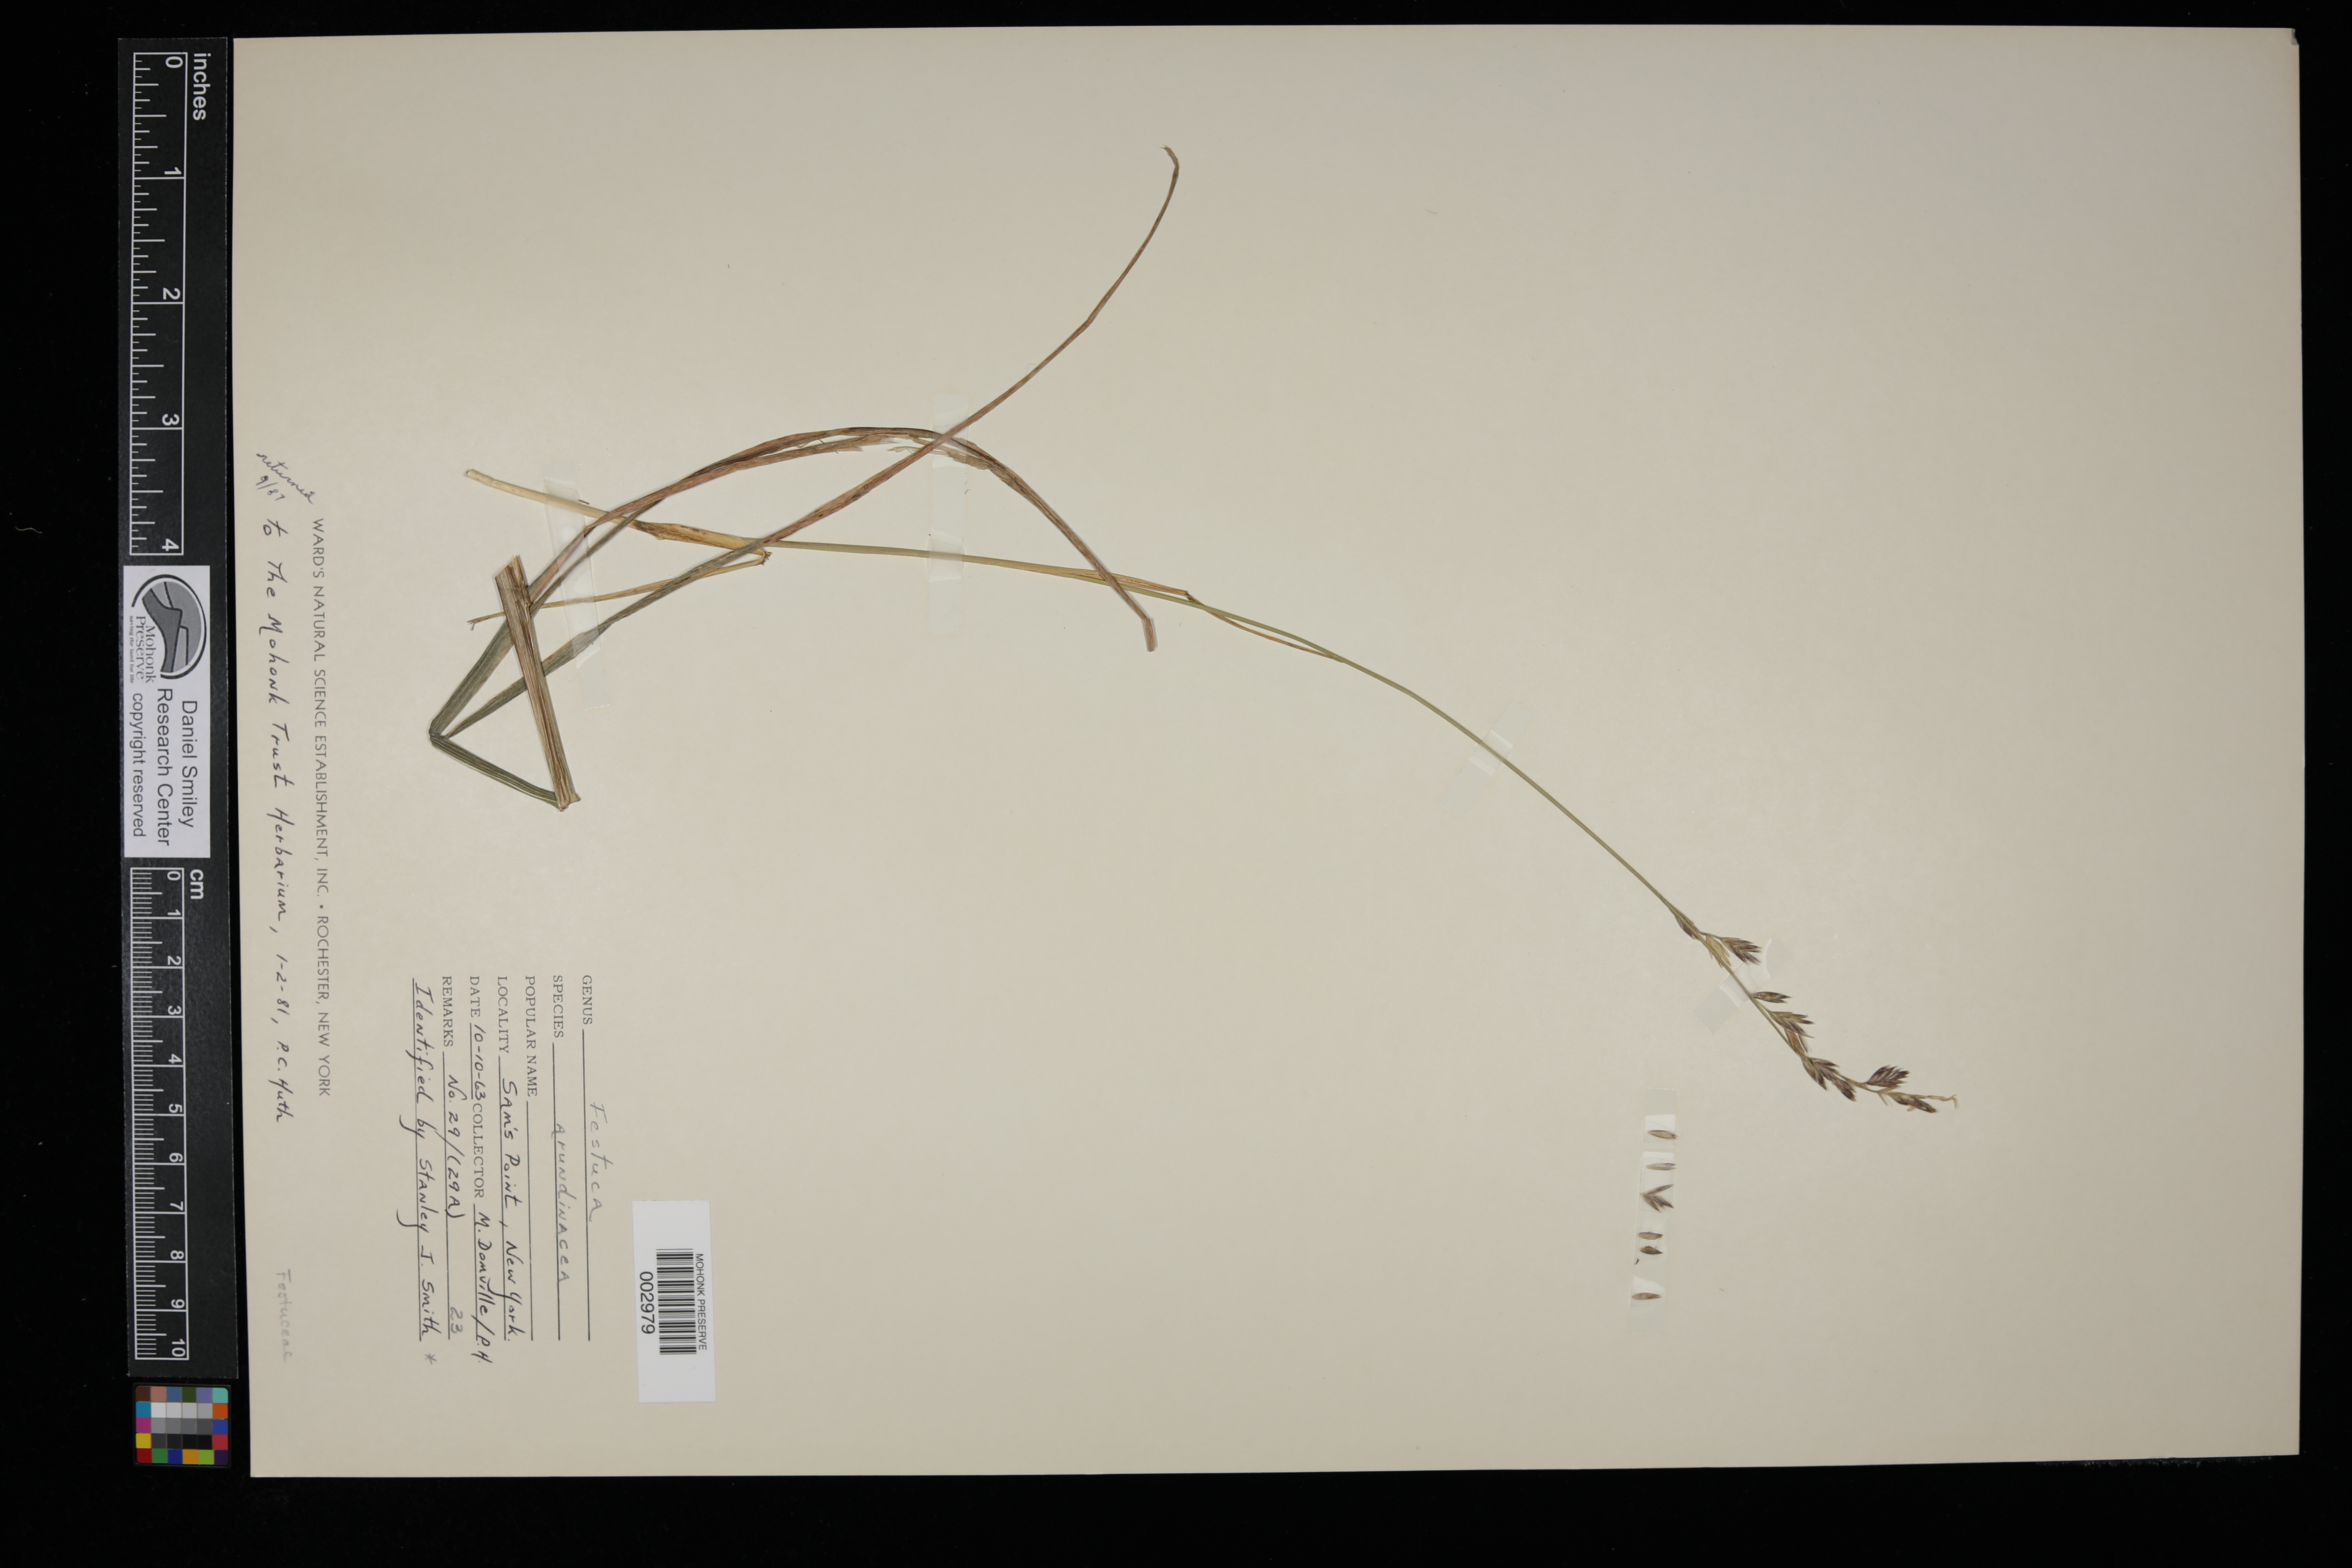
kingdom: Plantae
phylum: Tracheophyta
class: Liliopsida
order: Poales
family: Poaceae
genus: Lolium
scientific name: Lolium arundinaceum
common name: Reed fescue
